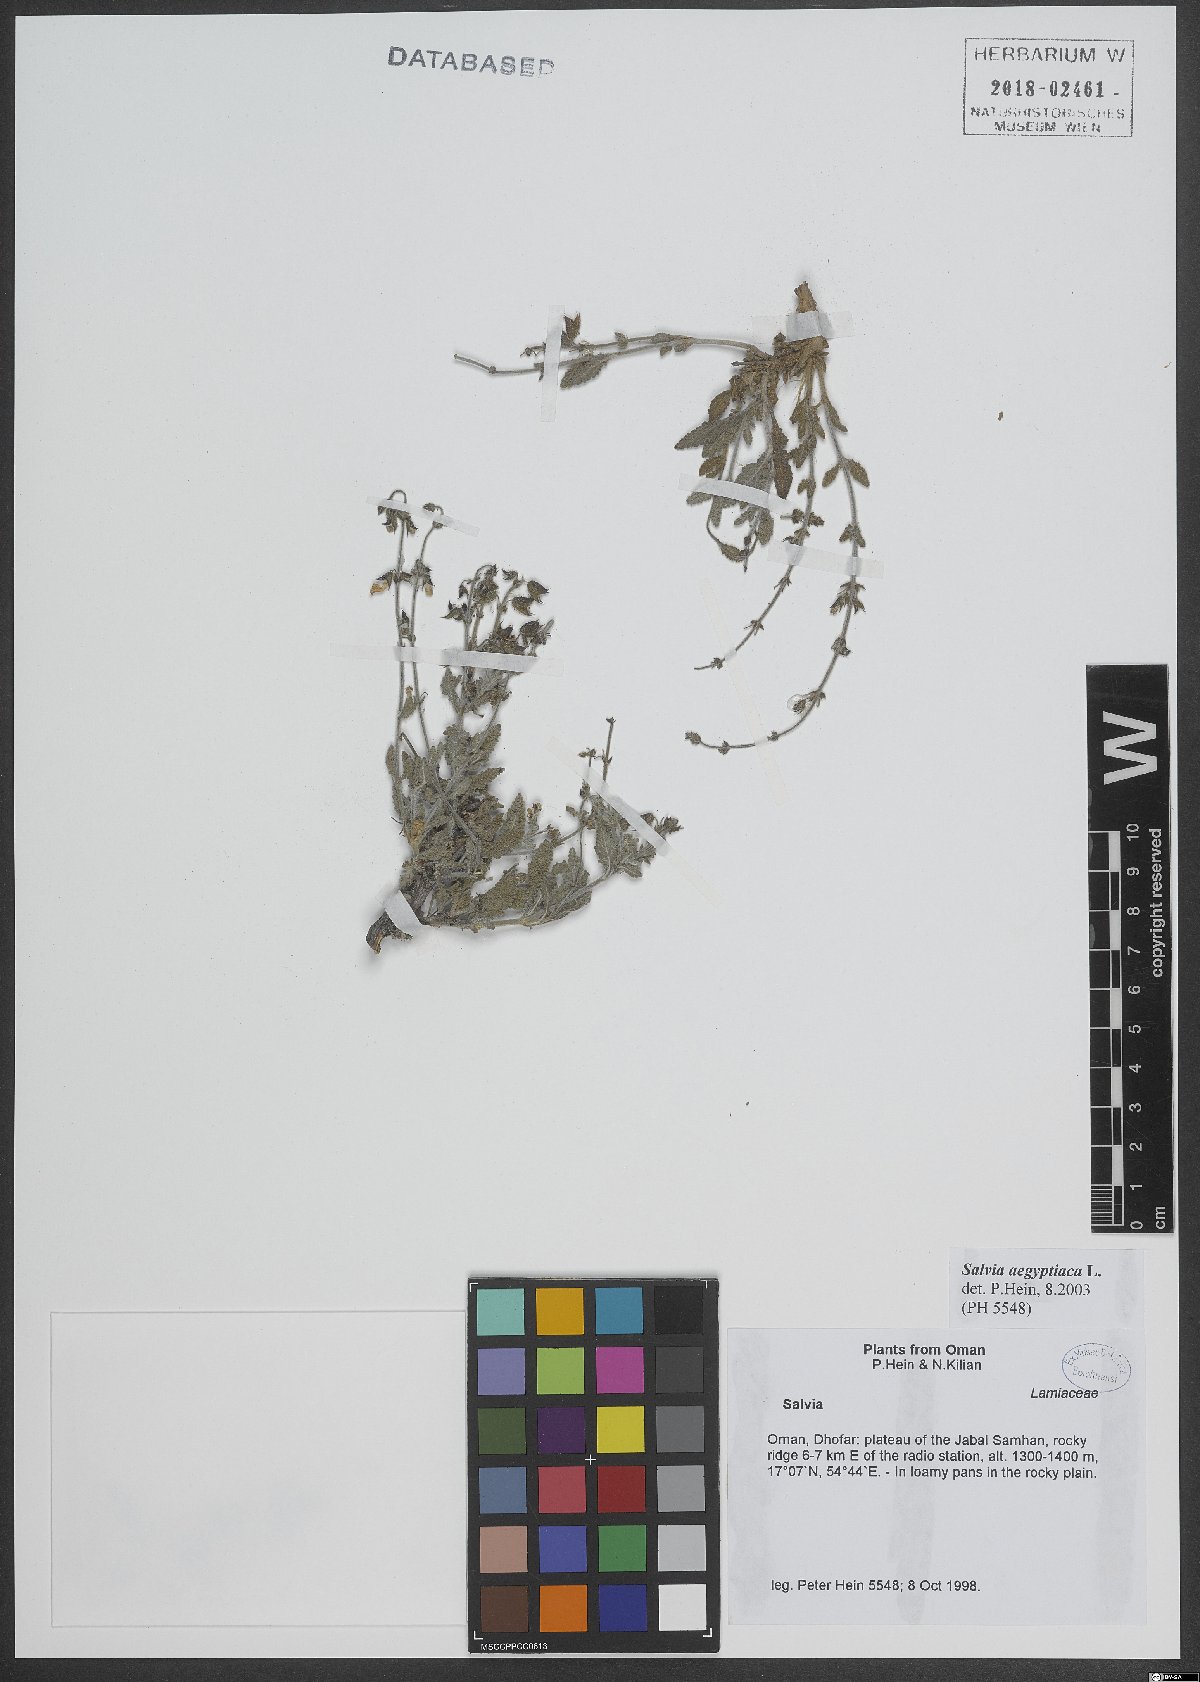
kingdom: Plantae
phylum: Tracheophyta
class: Magnoliopsida
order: Lamiales
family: Lamiaceae
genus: Salvia
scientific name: Salvia aegyptiaca
